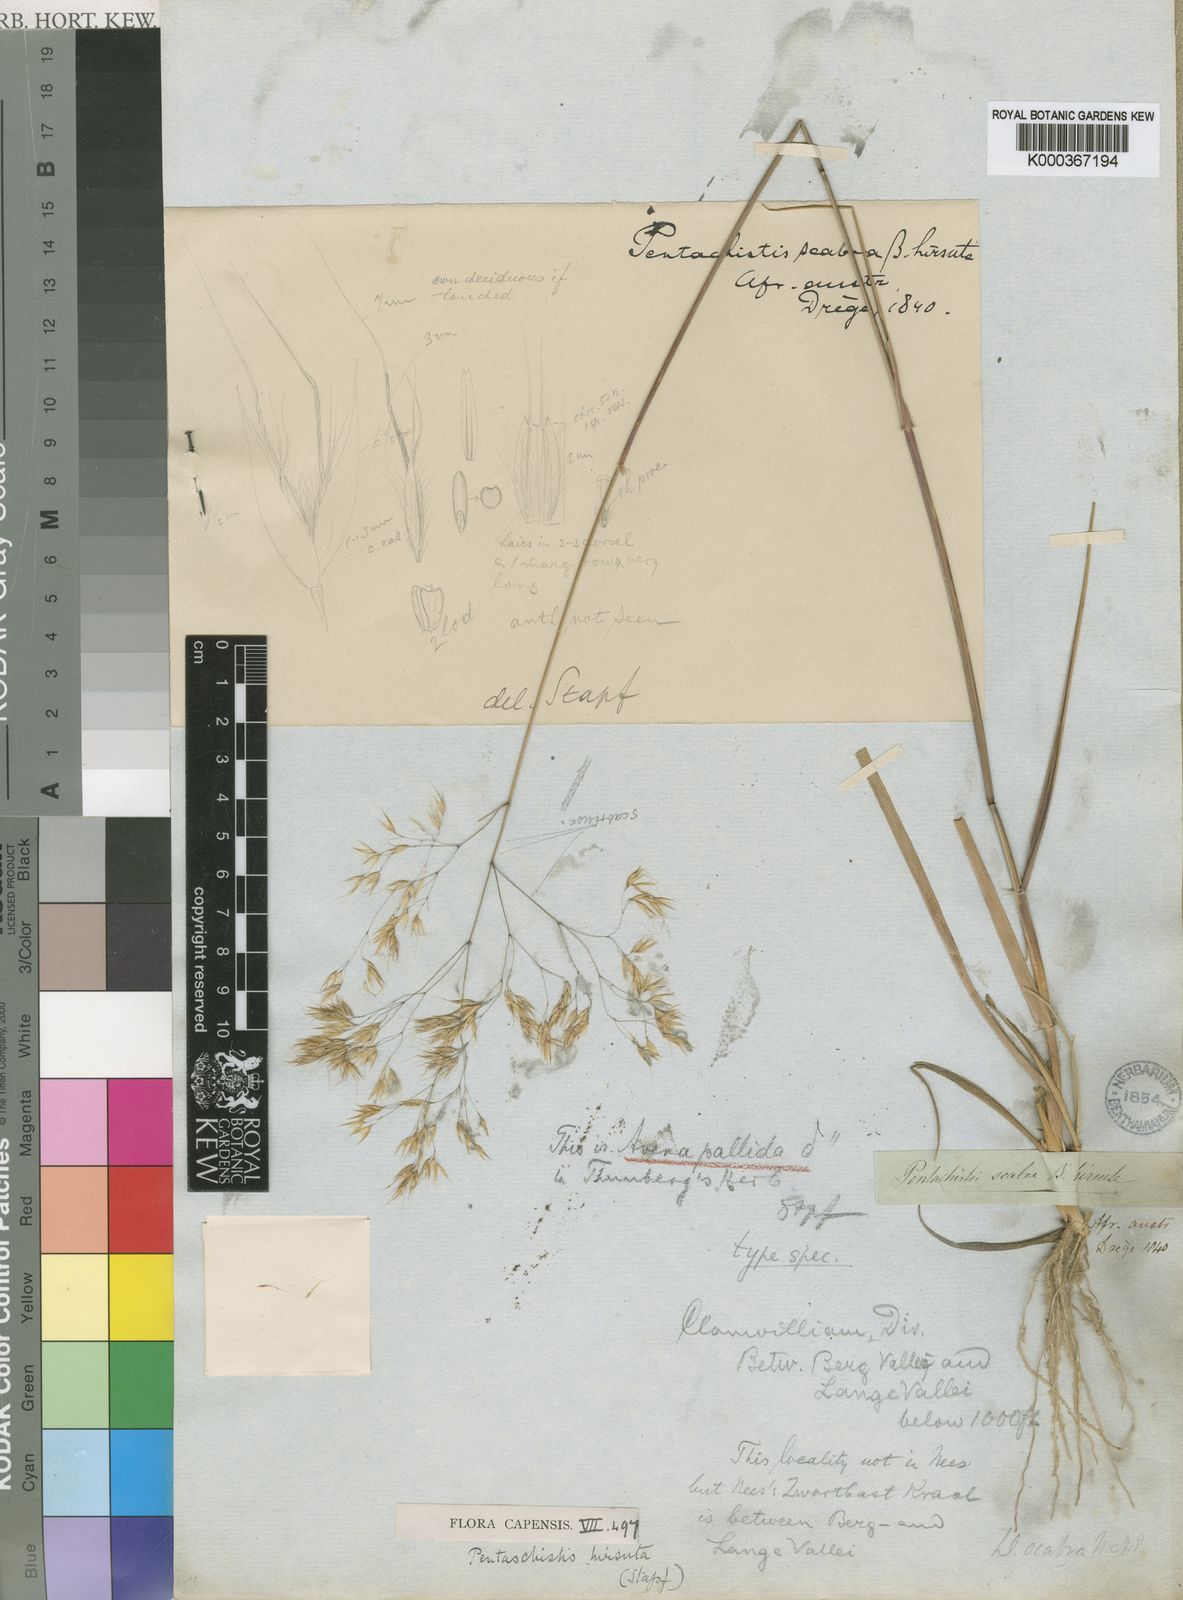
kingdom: Plantae
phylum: Tracheophyta
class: Liliopsida
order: Poales
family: Poaceae
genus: Pentameris
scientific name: Pentameris rupestris
